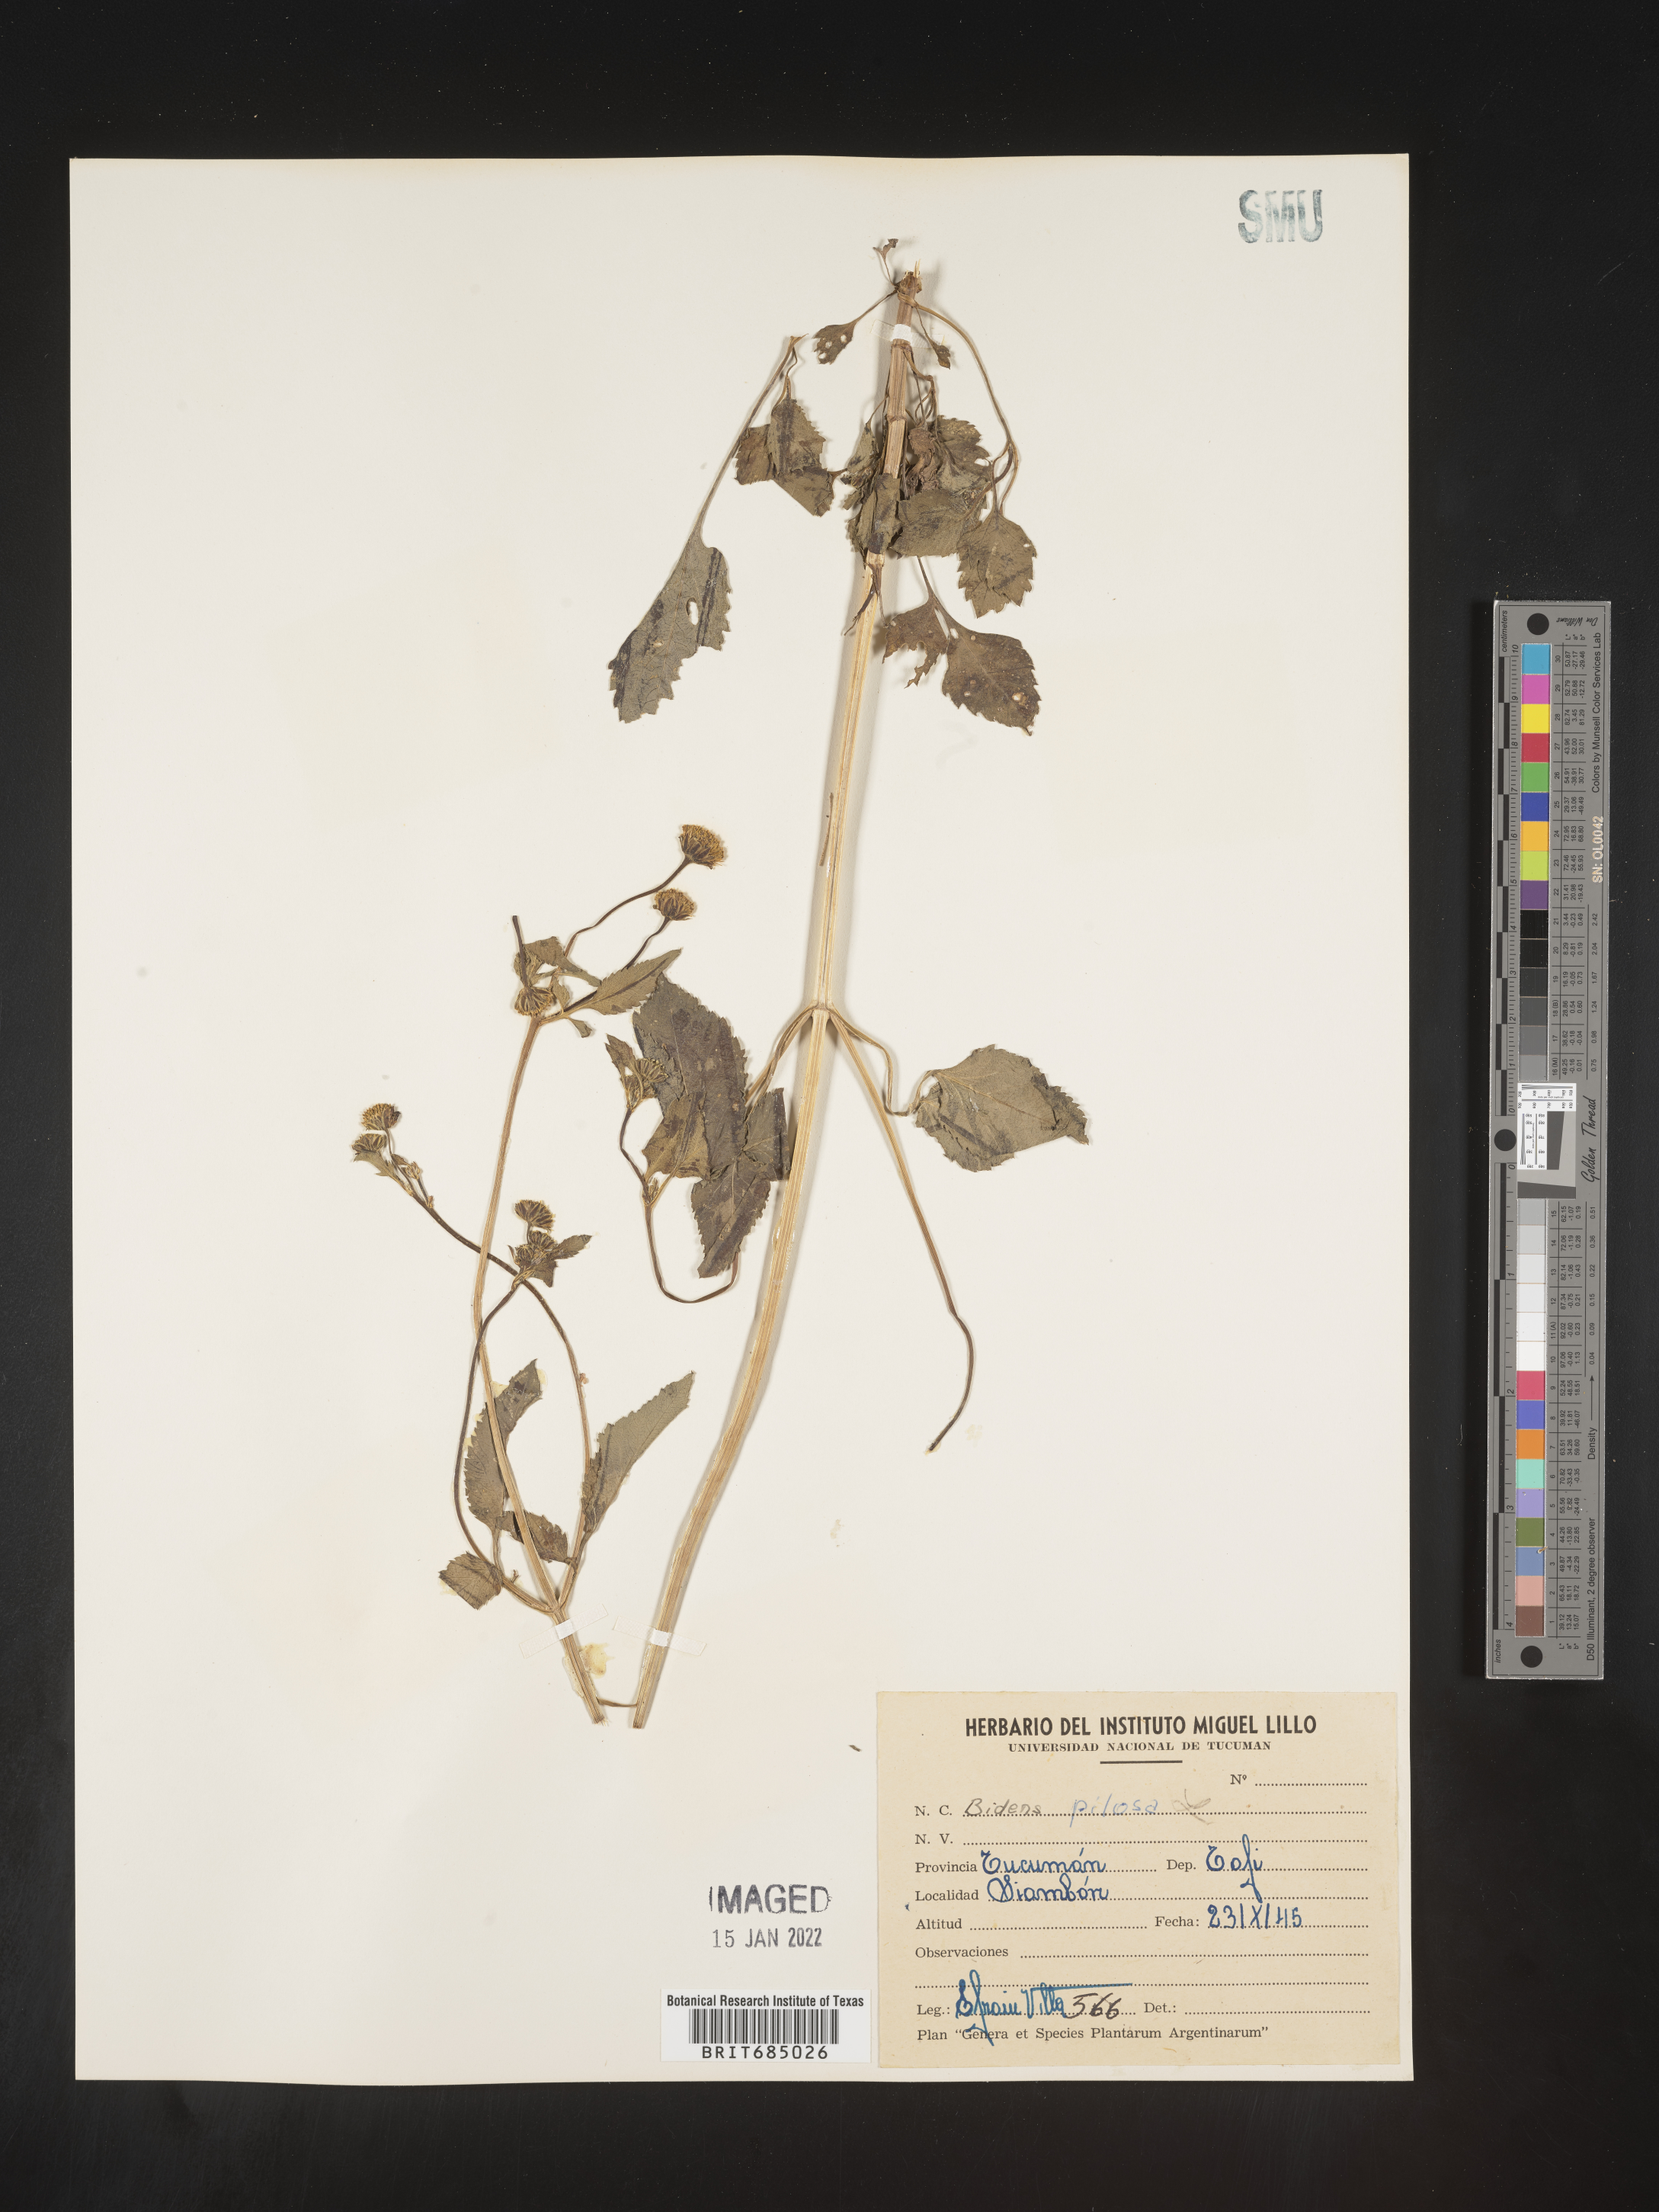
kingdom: Plantae
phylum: Tracheophyta
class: Magnoliopsida
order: Asterales
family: Asteraceae
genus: Bidens
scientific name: Bidens
